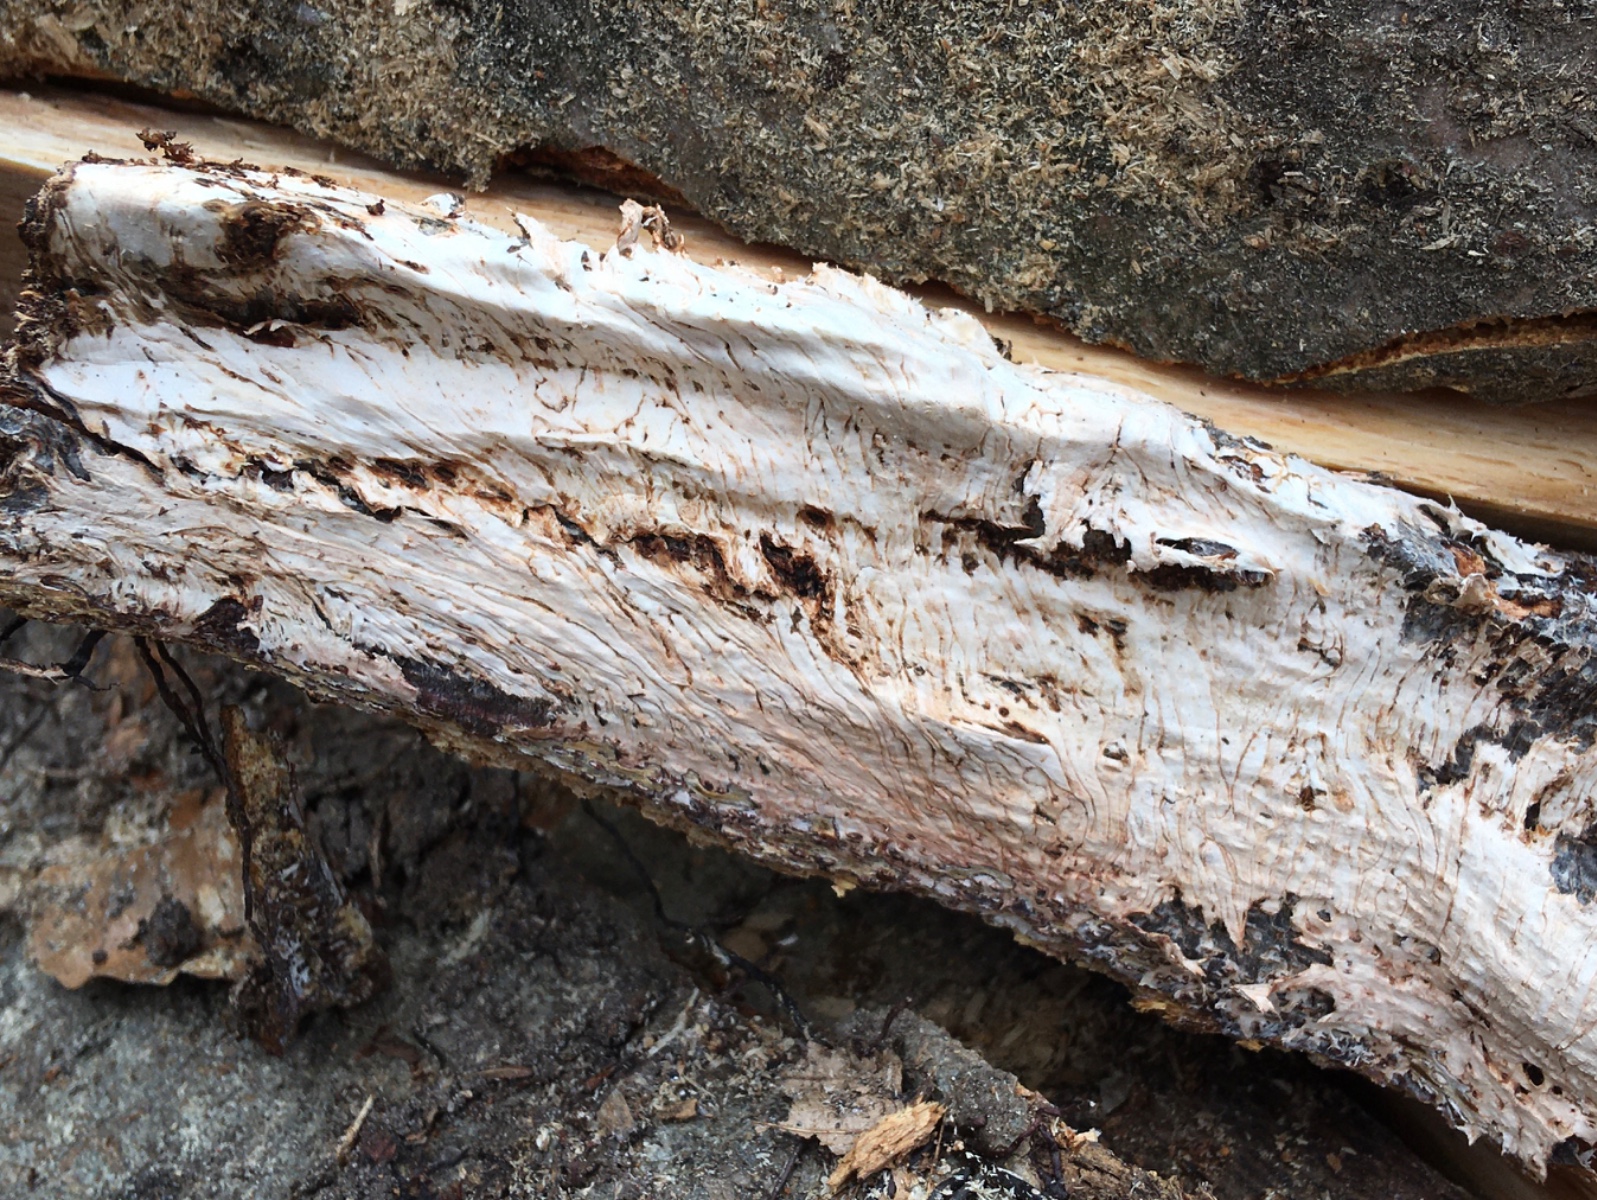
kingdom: Fungi
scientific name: Fungi
